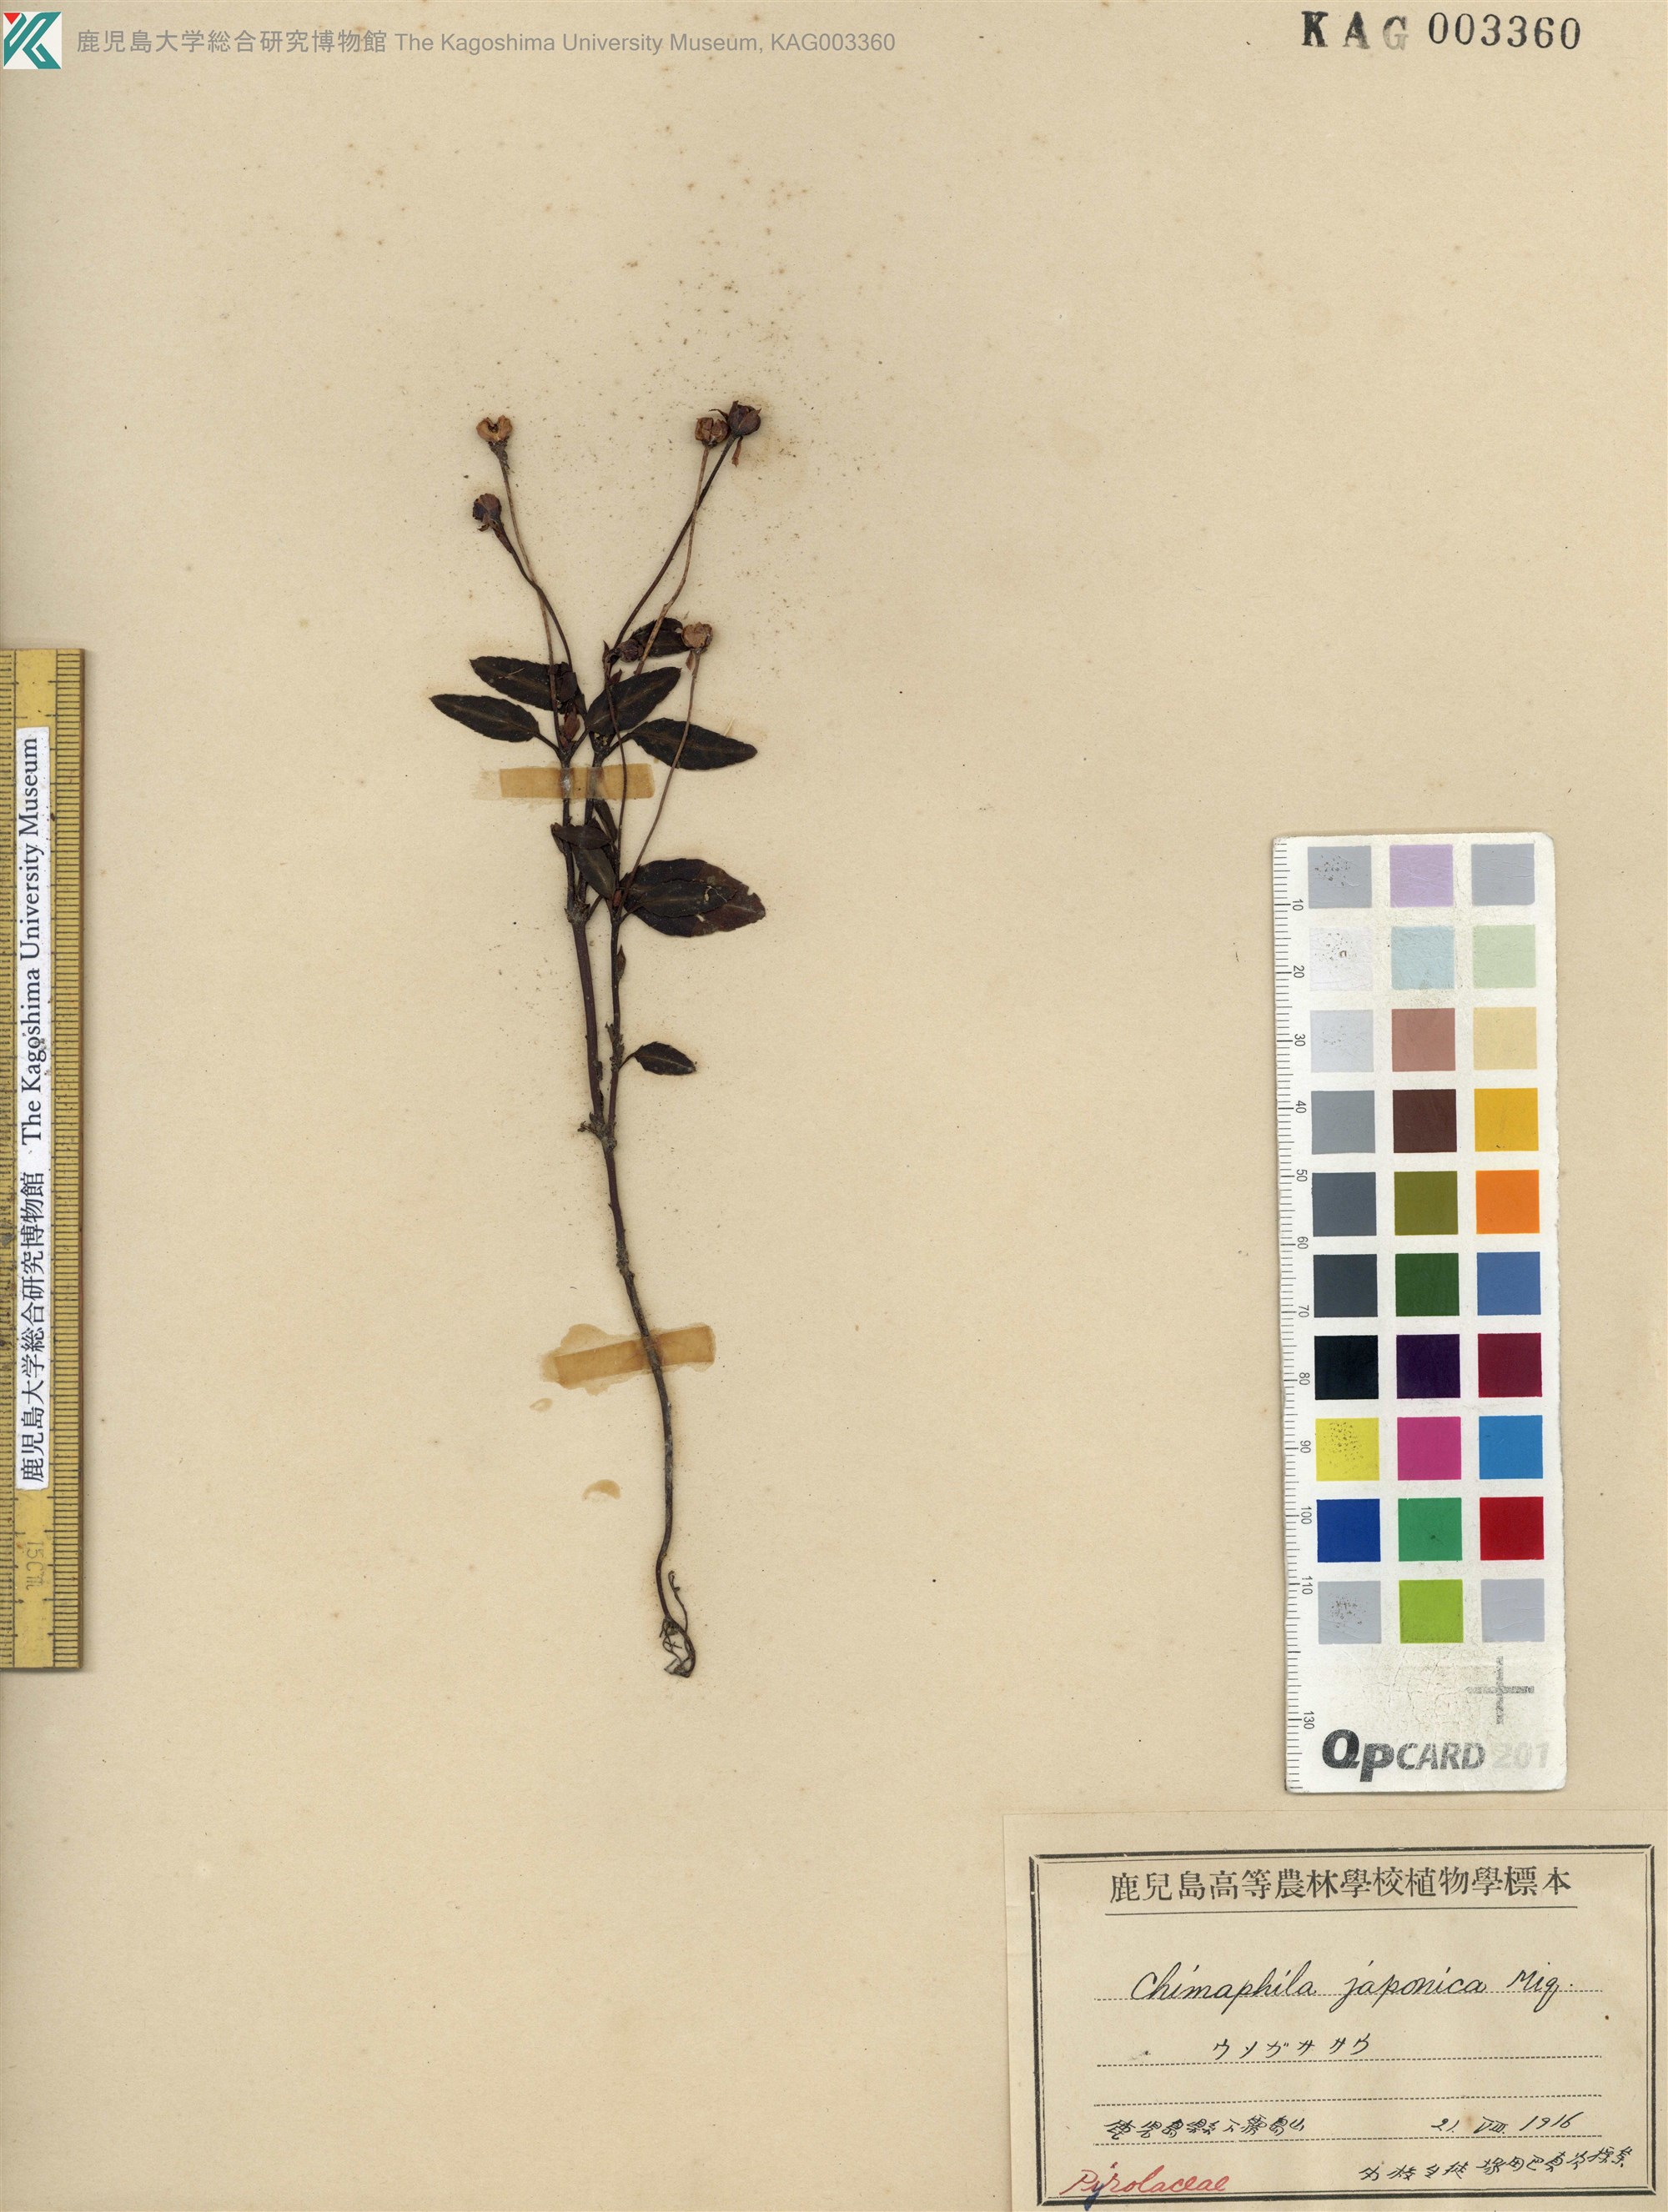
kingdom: Plantae
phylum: Tracheophyta
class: Magnoliopsida
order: Ericales
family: Ericaceae
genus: Chimaphila
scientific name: Chimaphila japonica
